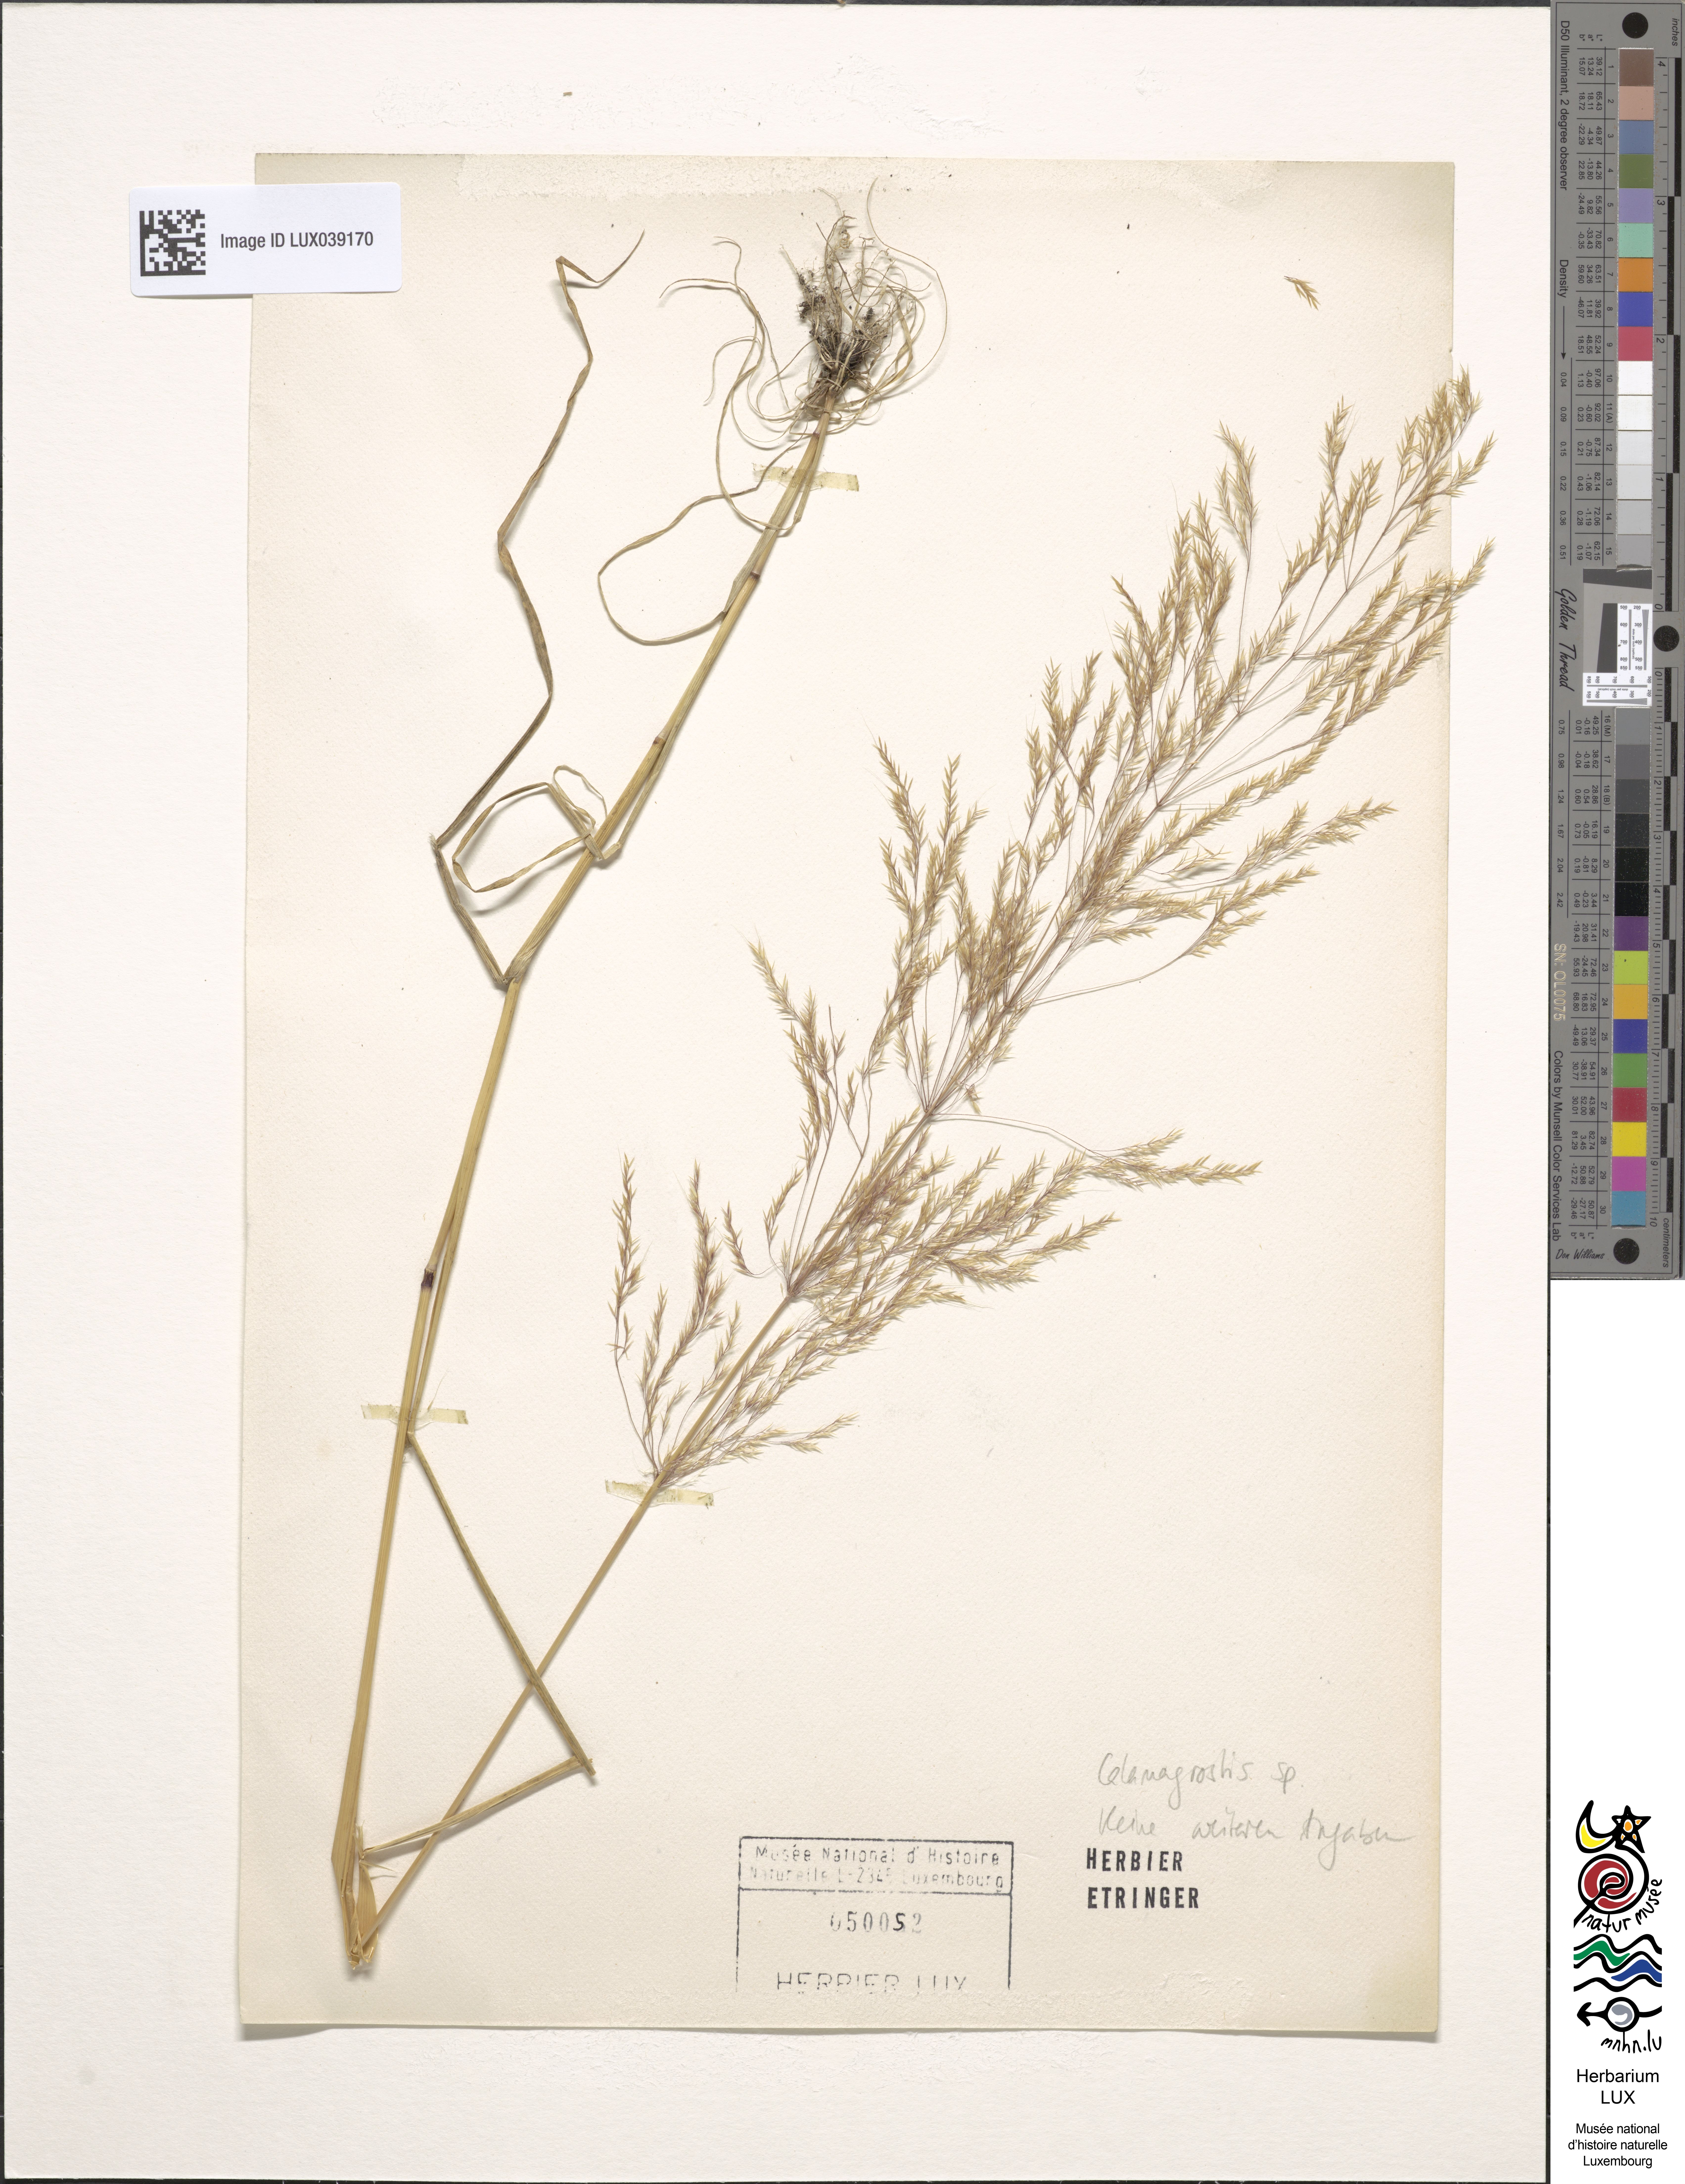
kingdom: Plantae
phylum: Tracheophyta
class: Liliopsida
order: Poales
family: Poaceae
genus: Calamagrostis
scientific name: Calamagrostis
